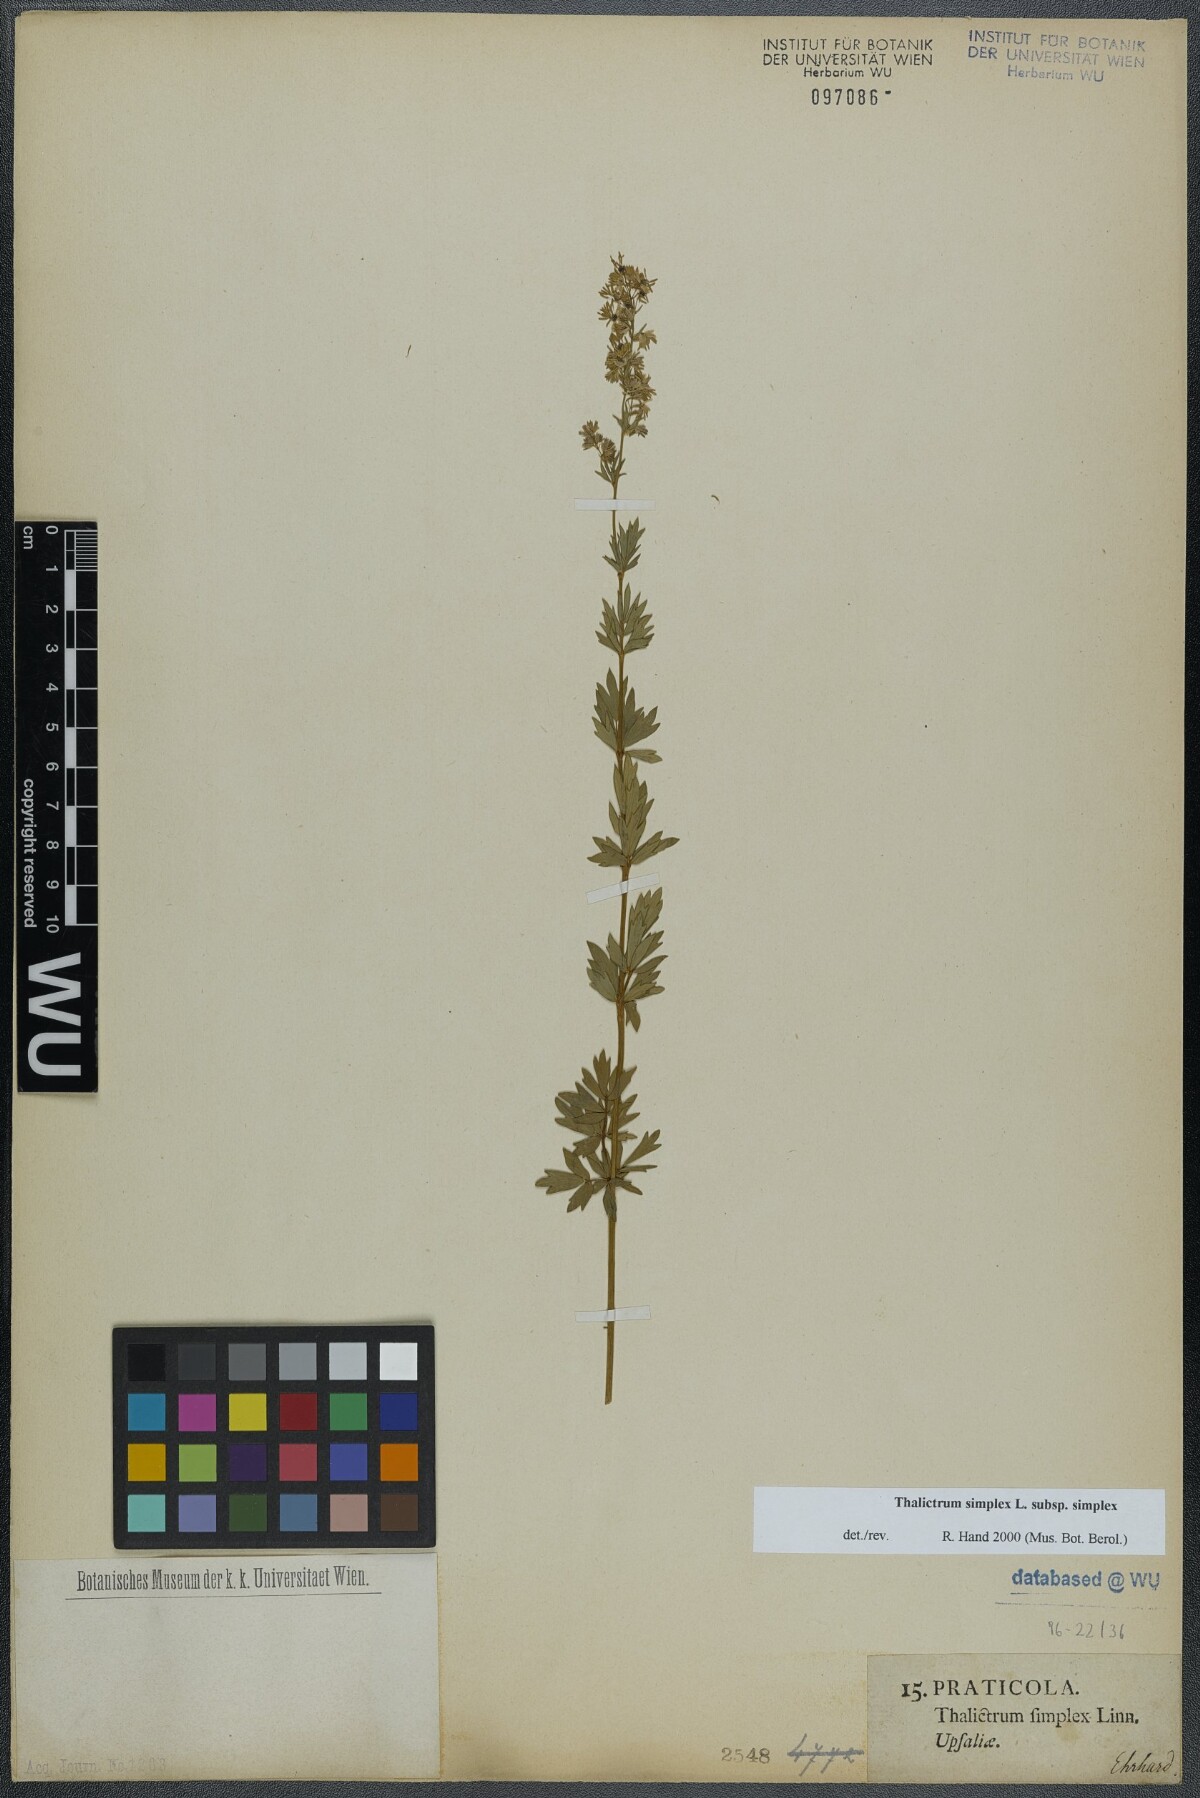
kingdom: Plantae
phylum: Tracheophyta
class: Magnoliopsida
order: Ranunculales
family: Ranunculaceae
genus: Thalictrum
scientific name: Thalictrum simplex
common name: Small meadow-rue
